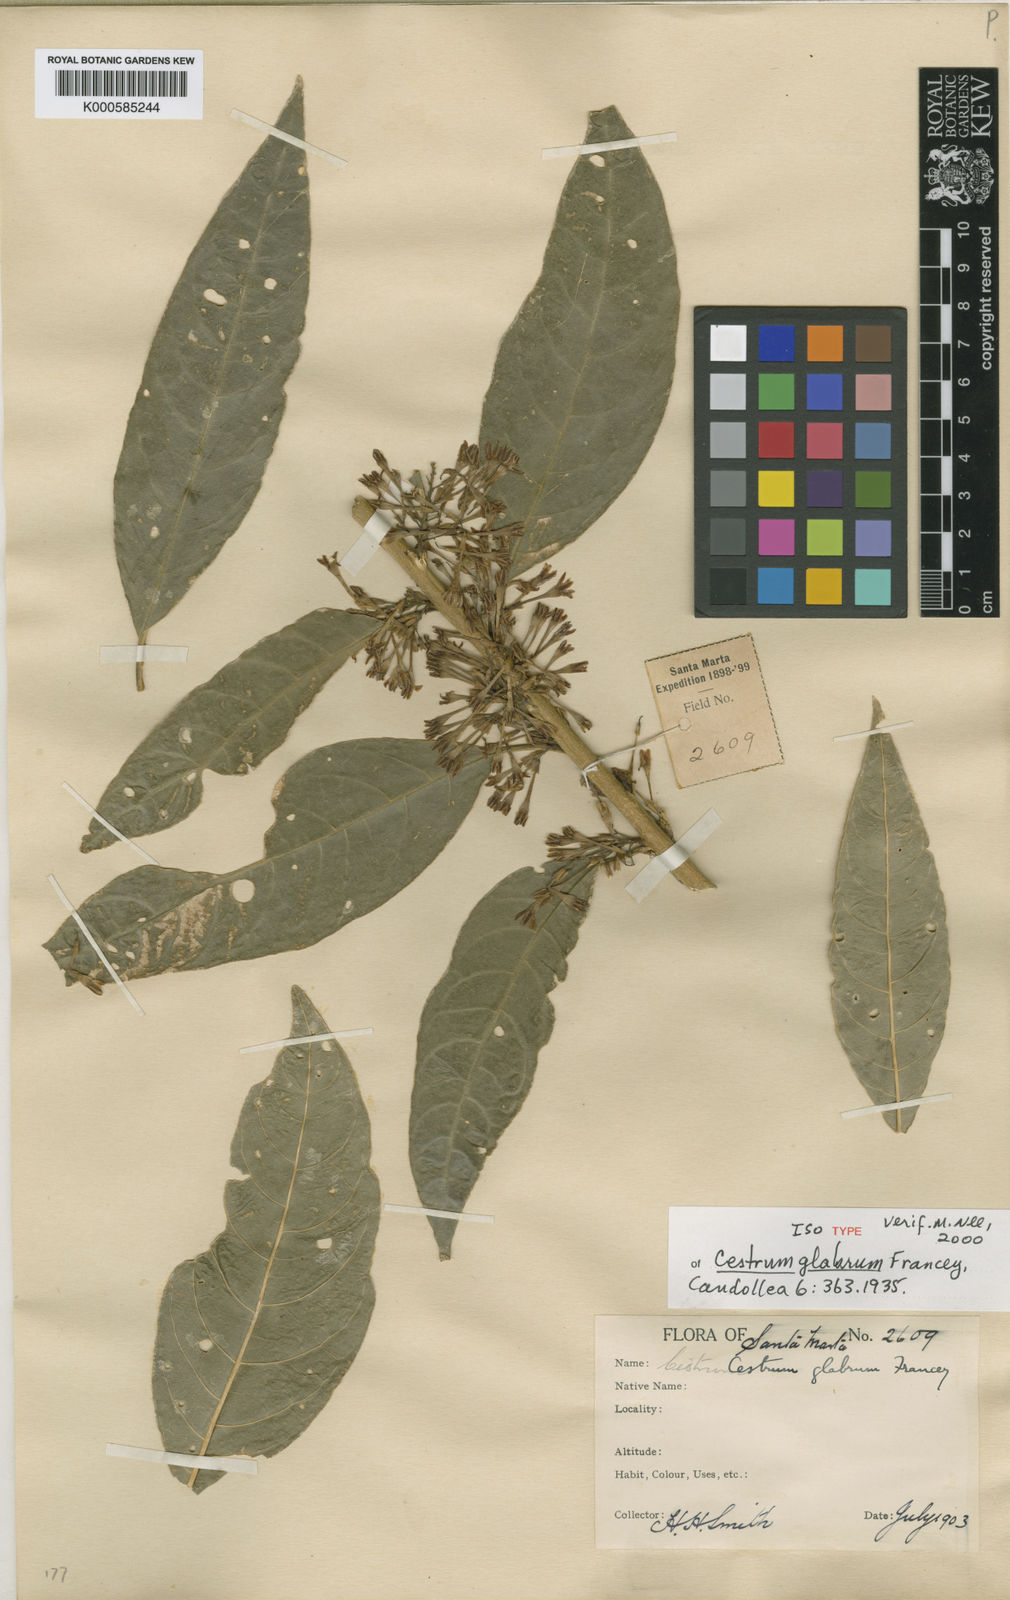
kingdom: Plantae
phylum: Tracheophyta
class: Magnoliopsida
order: Solanales
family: Solanaceae
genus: Cestrum
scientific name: Cestrum glabrum
